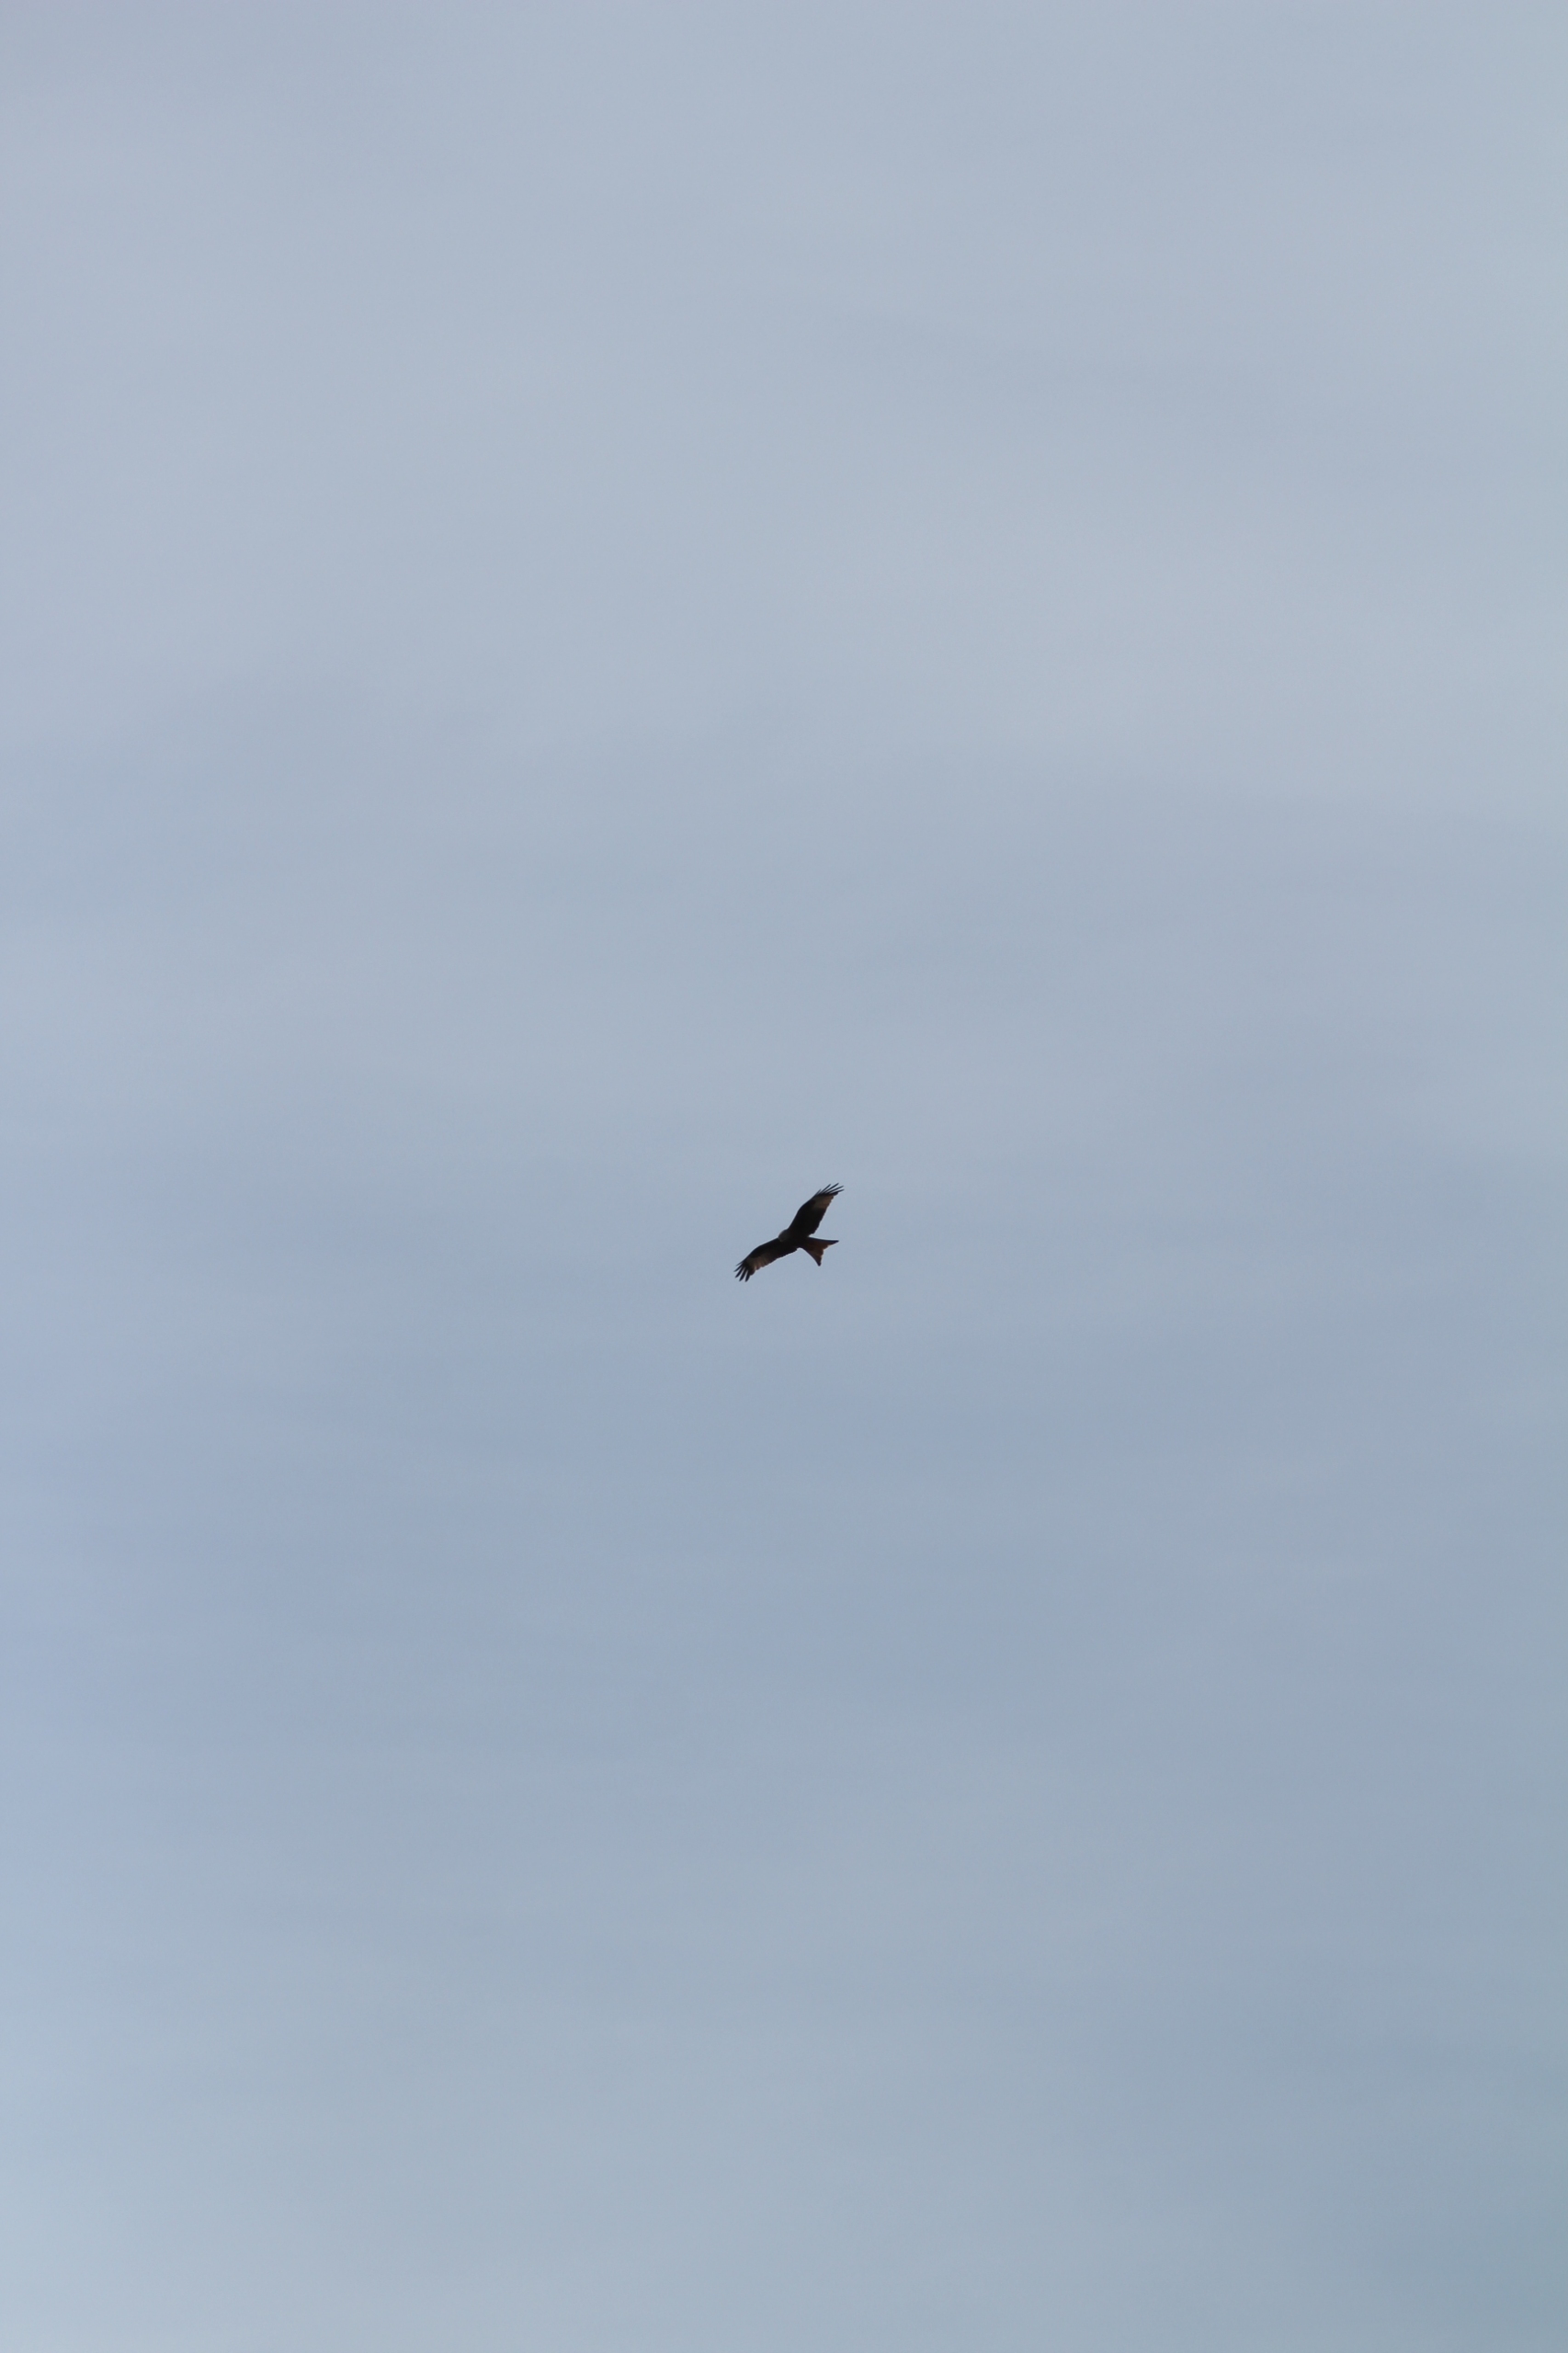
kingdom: Animalia
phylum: Chordata
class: Aves
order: Accipitriformes
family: Accipitridae
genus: Milvus
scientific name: Milvus milvus
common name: Rød glente
